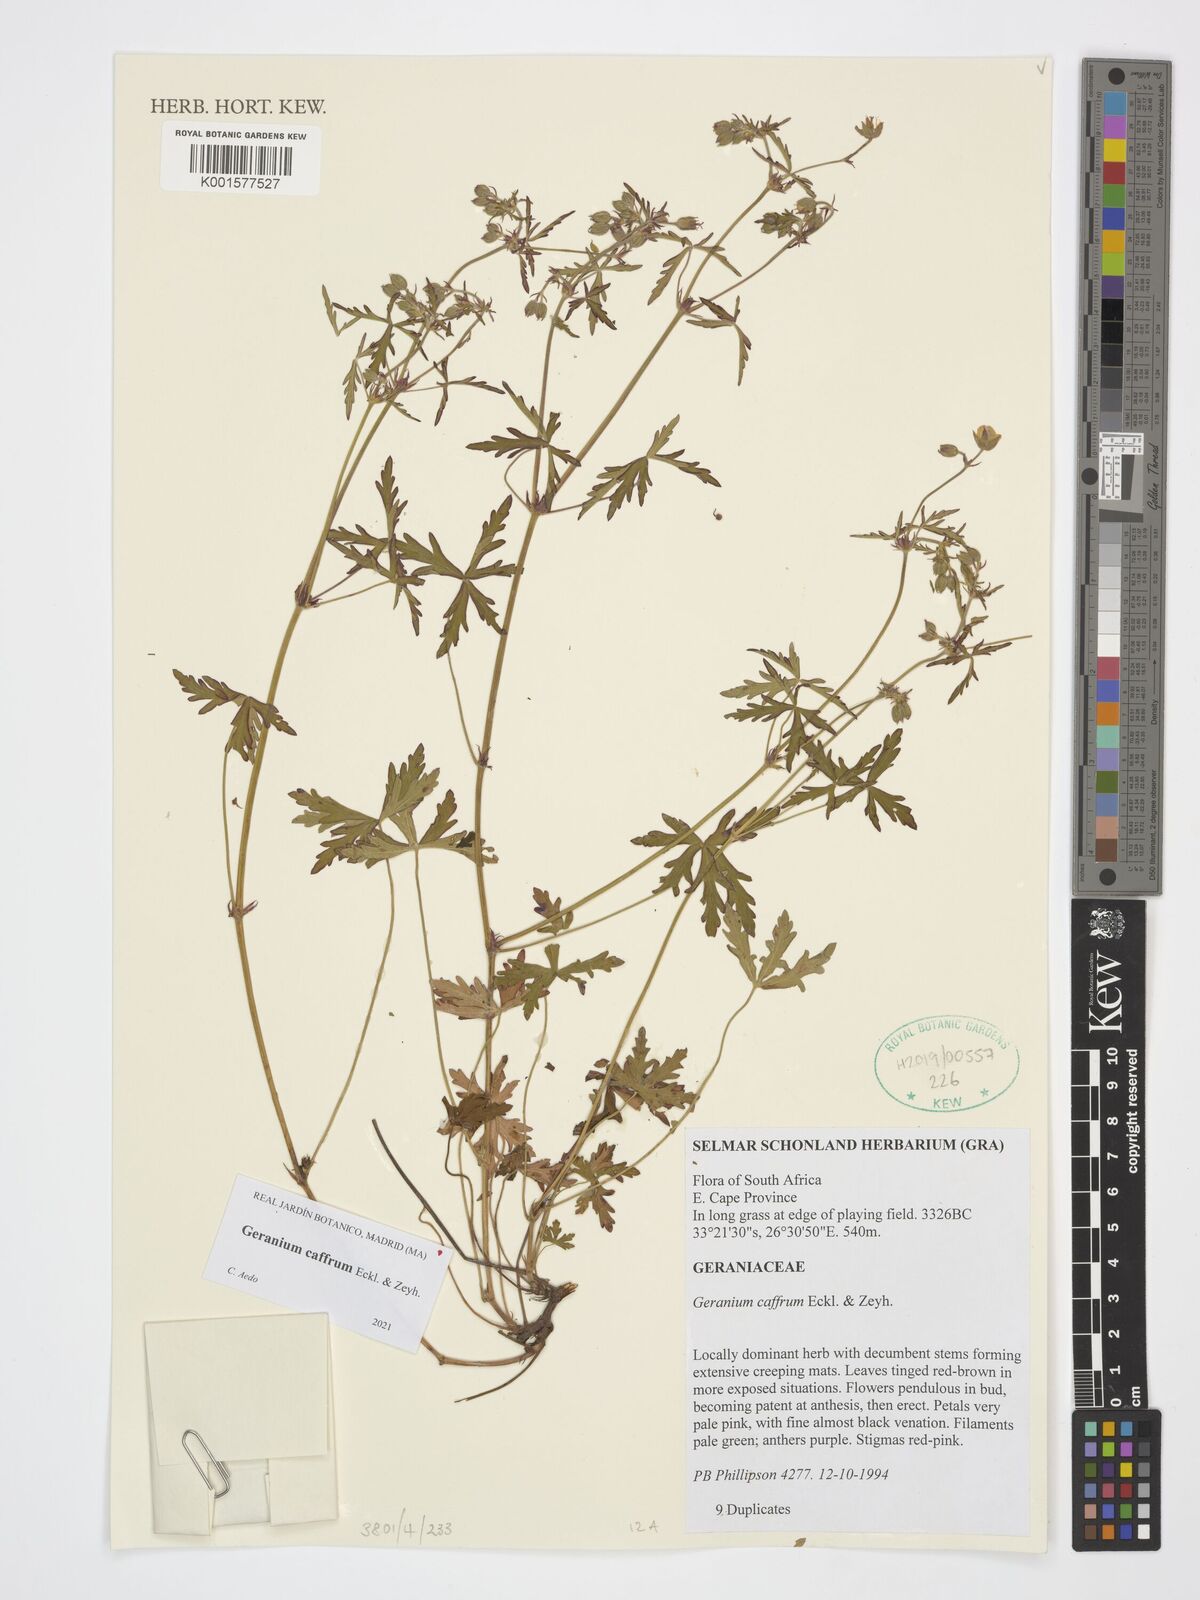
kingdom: Plantae
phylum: Tracheophyta
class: Magnoliopsida
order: Geraniales
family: Geraniaceae
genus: Geranium
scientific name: Geranium caffrum
